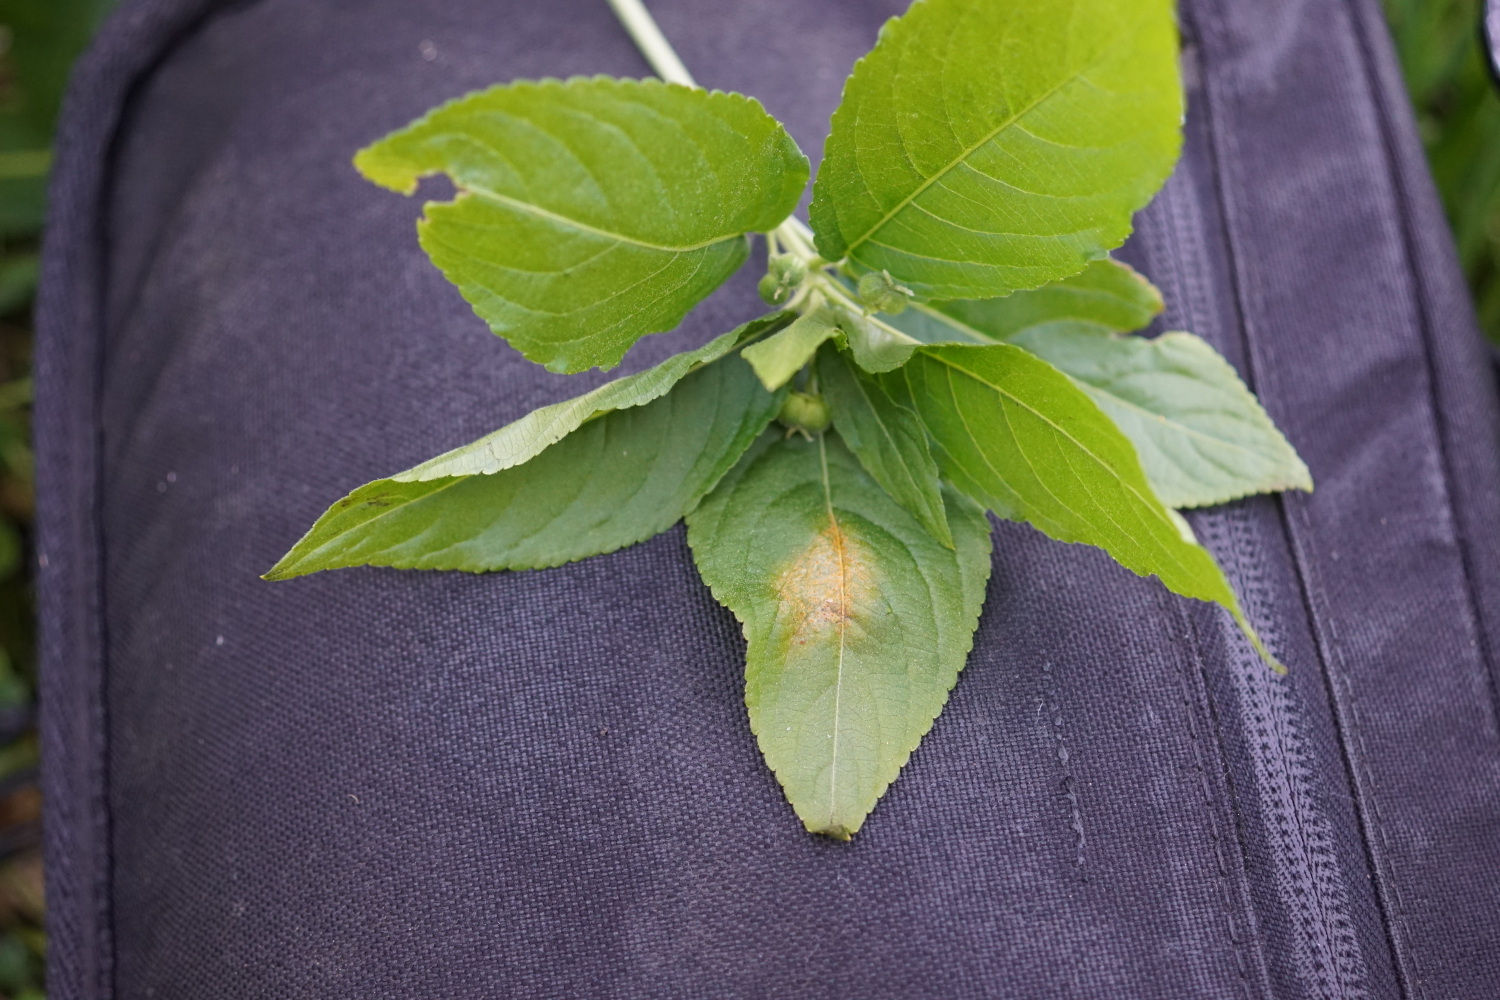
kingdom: Fungi
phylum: Basidiomycota
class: Pucciniomycetes
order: Pucciniales
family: Melampsoraceae
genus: Melampsora
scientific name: Melampsora populnea
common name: poppel-skorperust
